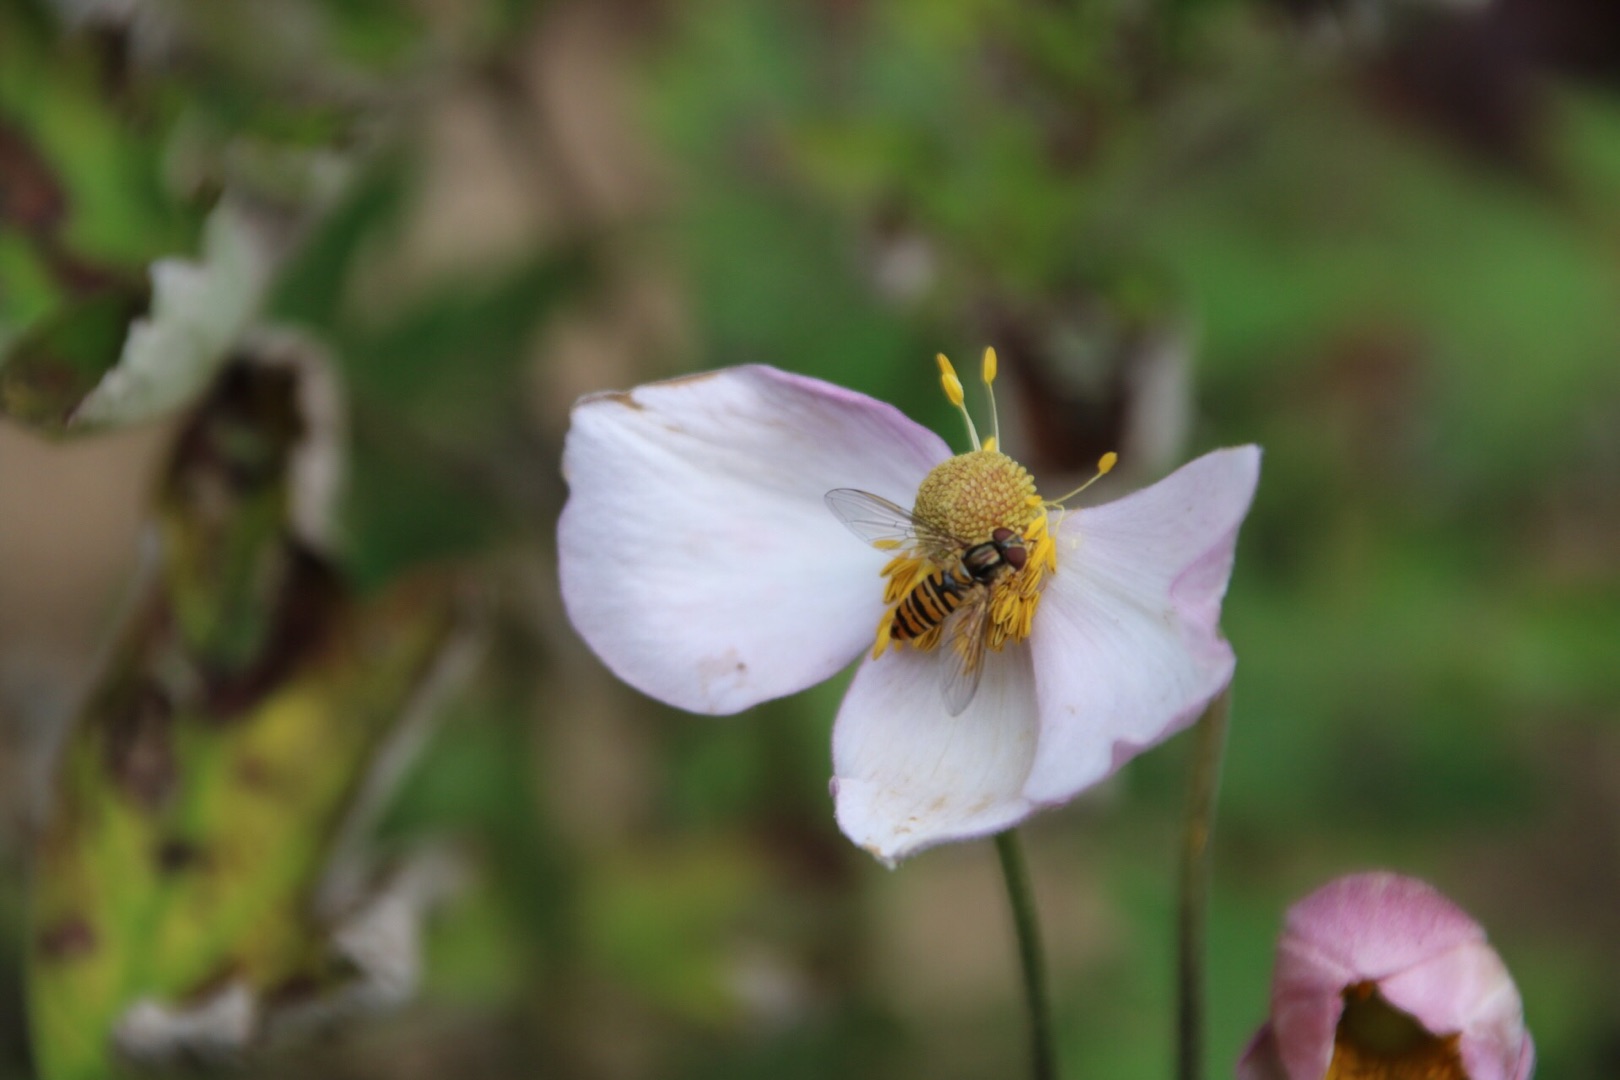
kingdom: Plantae
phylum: Tracheophyta
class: Magnoliopsida
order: Ranunculales
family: Ranunculaceae
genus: Eriocapitella
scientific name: Eriocapitella hupehensis
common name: Høst-anemone
